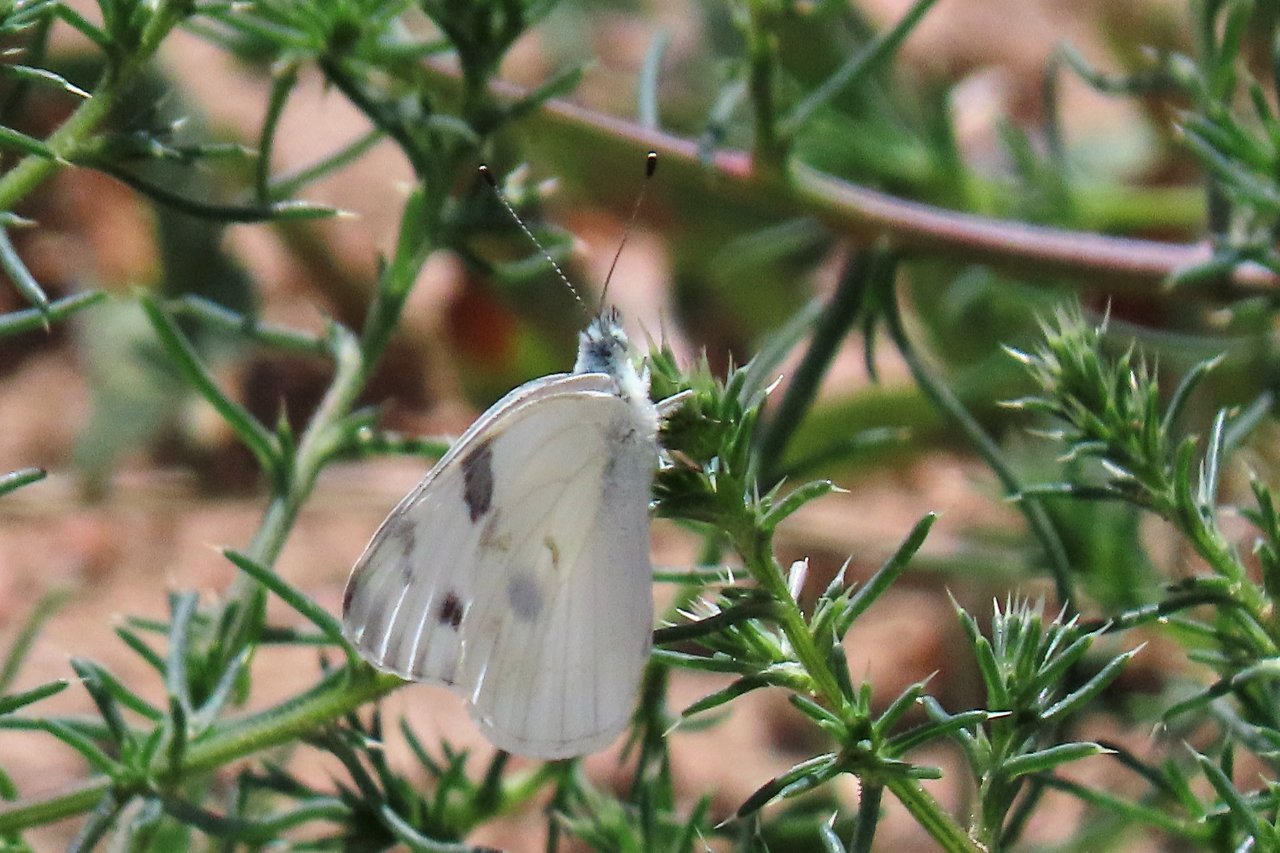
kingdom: Animalia
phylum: Arthropoda
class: Insecta
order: Lepidoptera
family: Pieridae
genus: Pontia
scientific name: Pontia protodice
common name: Checkered White
